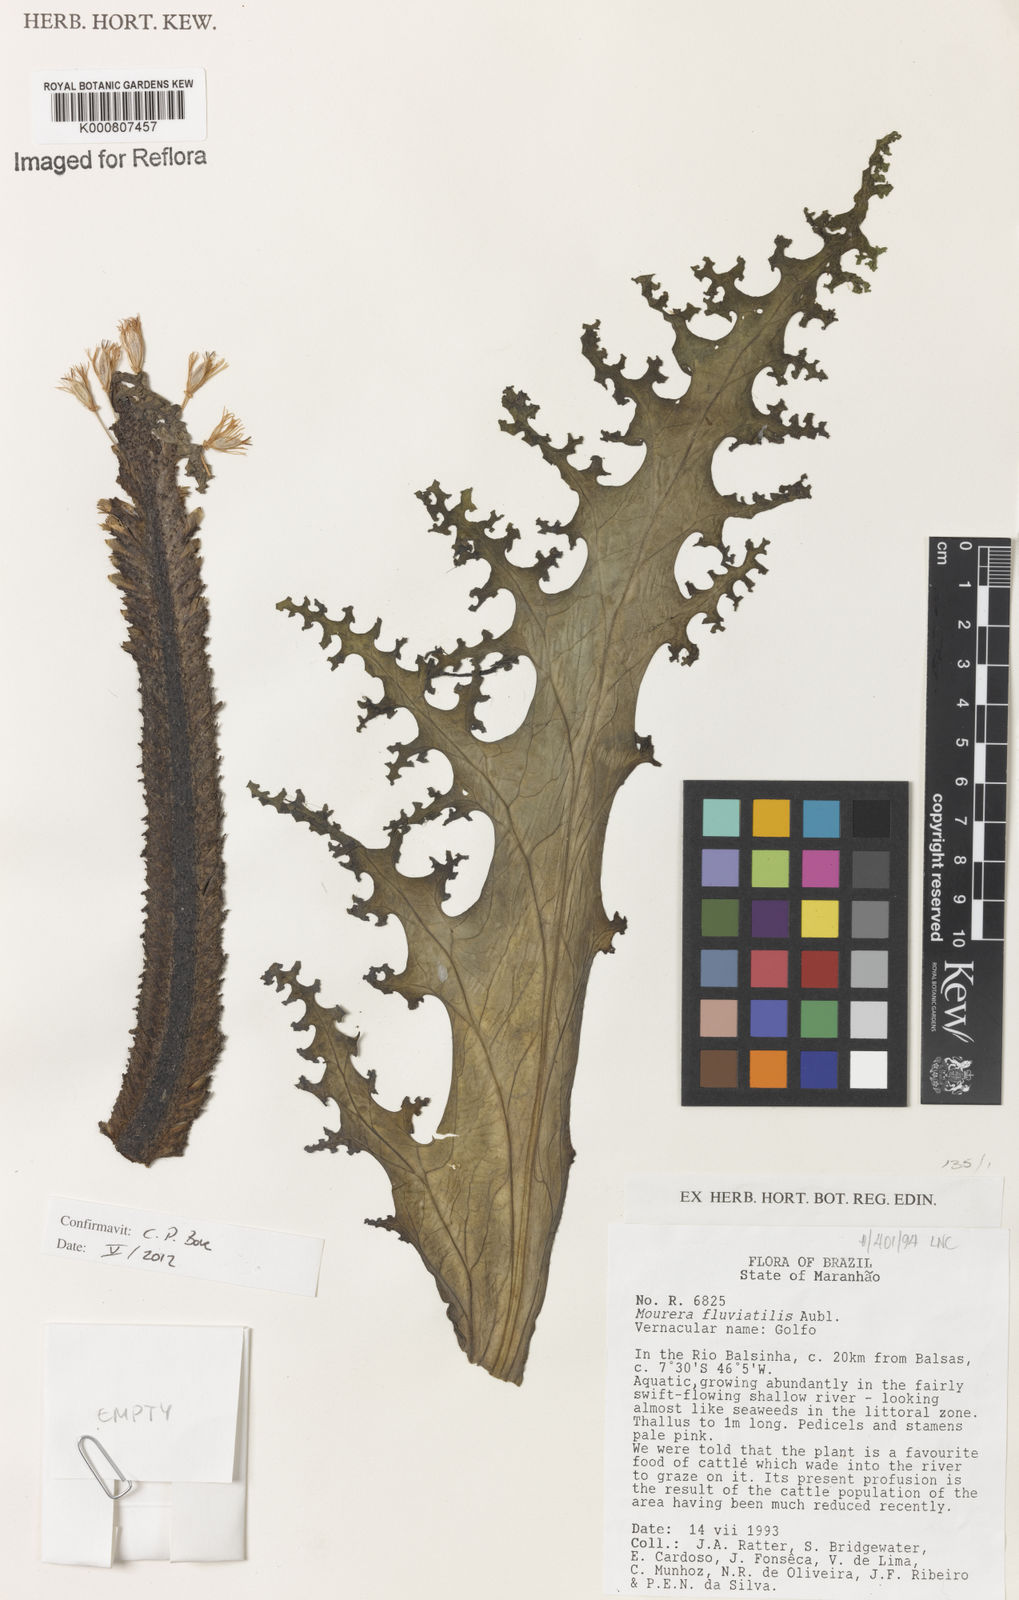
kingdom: Plantae
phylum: Tracheophyta
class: Magnoliopsida
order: Malpighiales
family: Podostemaceae
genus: Mourera
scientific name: Mourera fluviatilis
